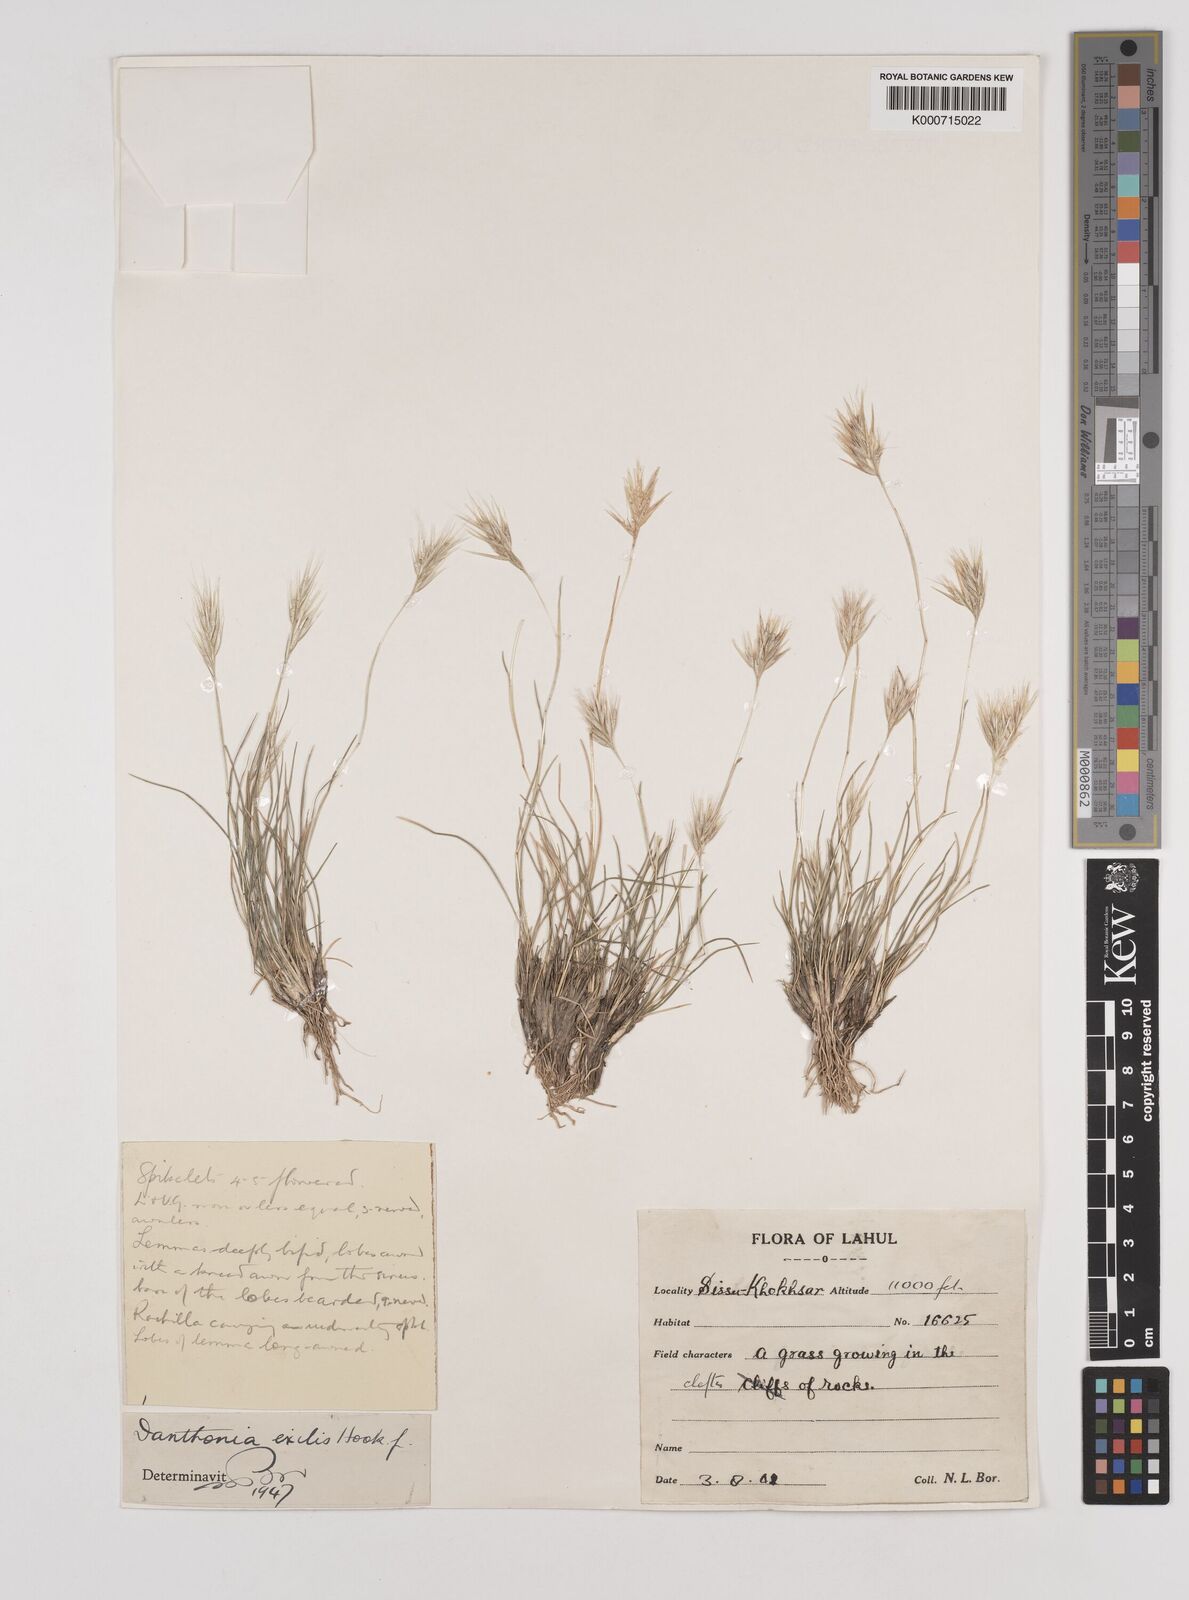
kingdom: Plantae
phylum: Tracheophyta
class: Liliopsida
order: Poales
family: Poaceae
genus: Rytidosperma
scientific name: Rytidosperma
